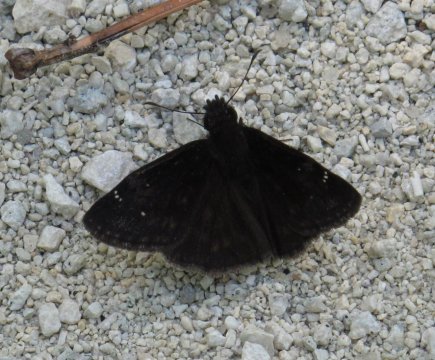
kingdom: Animalia
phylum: Arthropoda
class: Insecta
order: Lepidoptera
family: Hesperiidae
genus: Erynnis
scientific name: Erynnis zarucco
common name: Zarucco Duskywing
